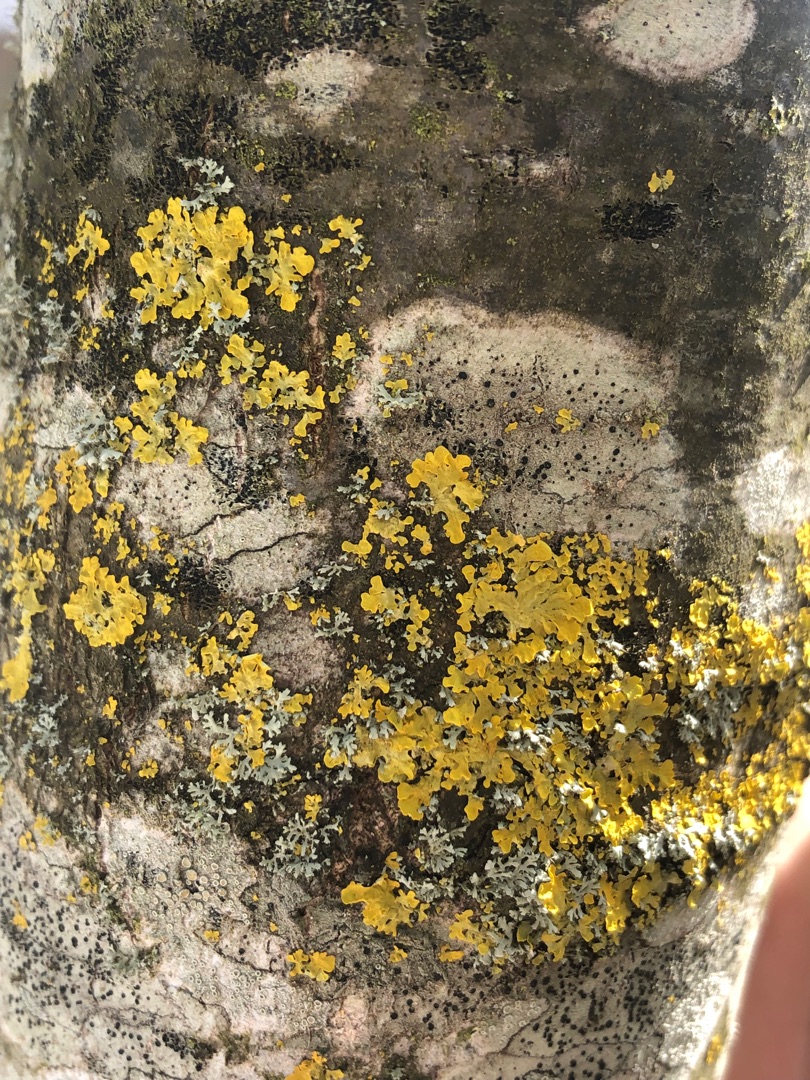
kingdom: Fungi
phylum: Ascomycota
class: Lecanoromycetes
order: Teloschistales
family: Teloschistaceae
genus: Xanthoria
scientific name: Xanthoria parietina
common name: Almindelig væggelav
